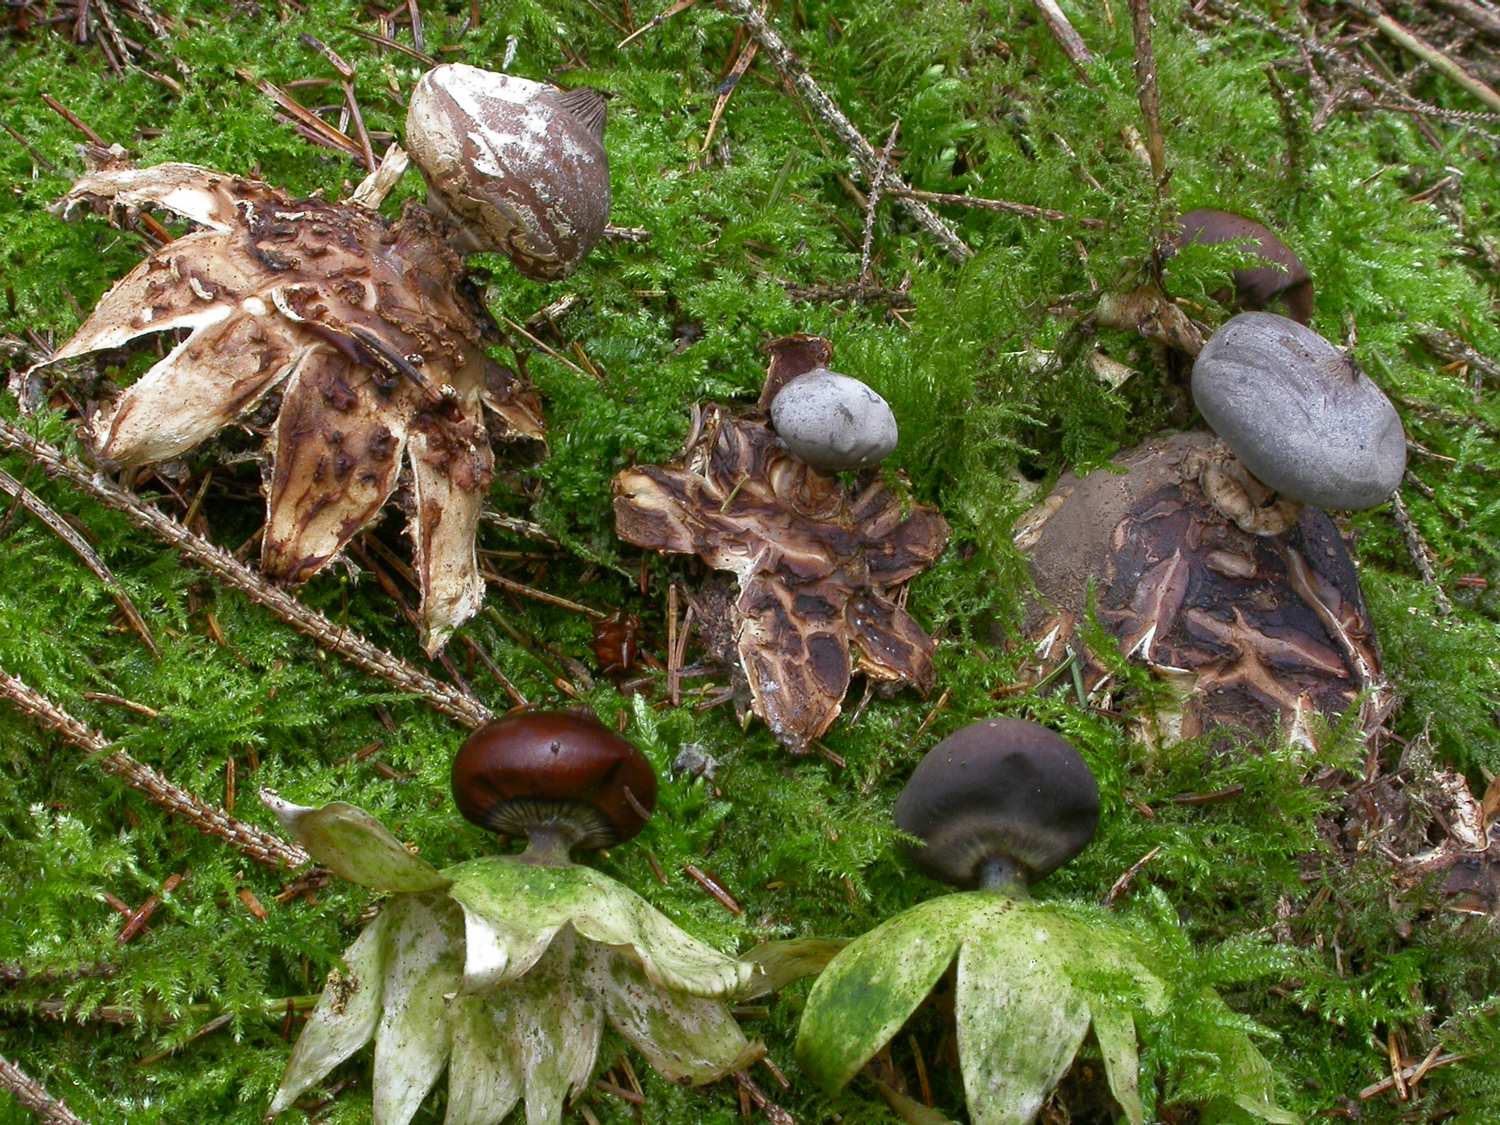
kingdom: Fungi
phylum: Basidiomycota
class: Agaricomycetes
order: Geastrales
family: Geastraceae
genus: Geastrum
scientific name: Geastrum pectinatum
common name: stilket stjernebold
